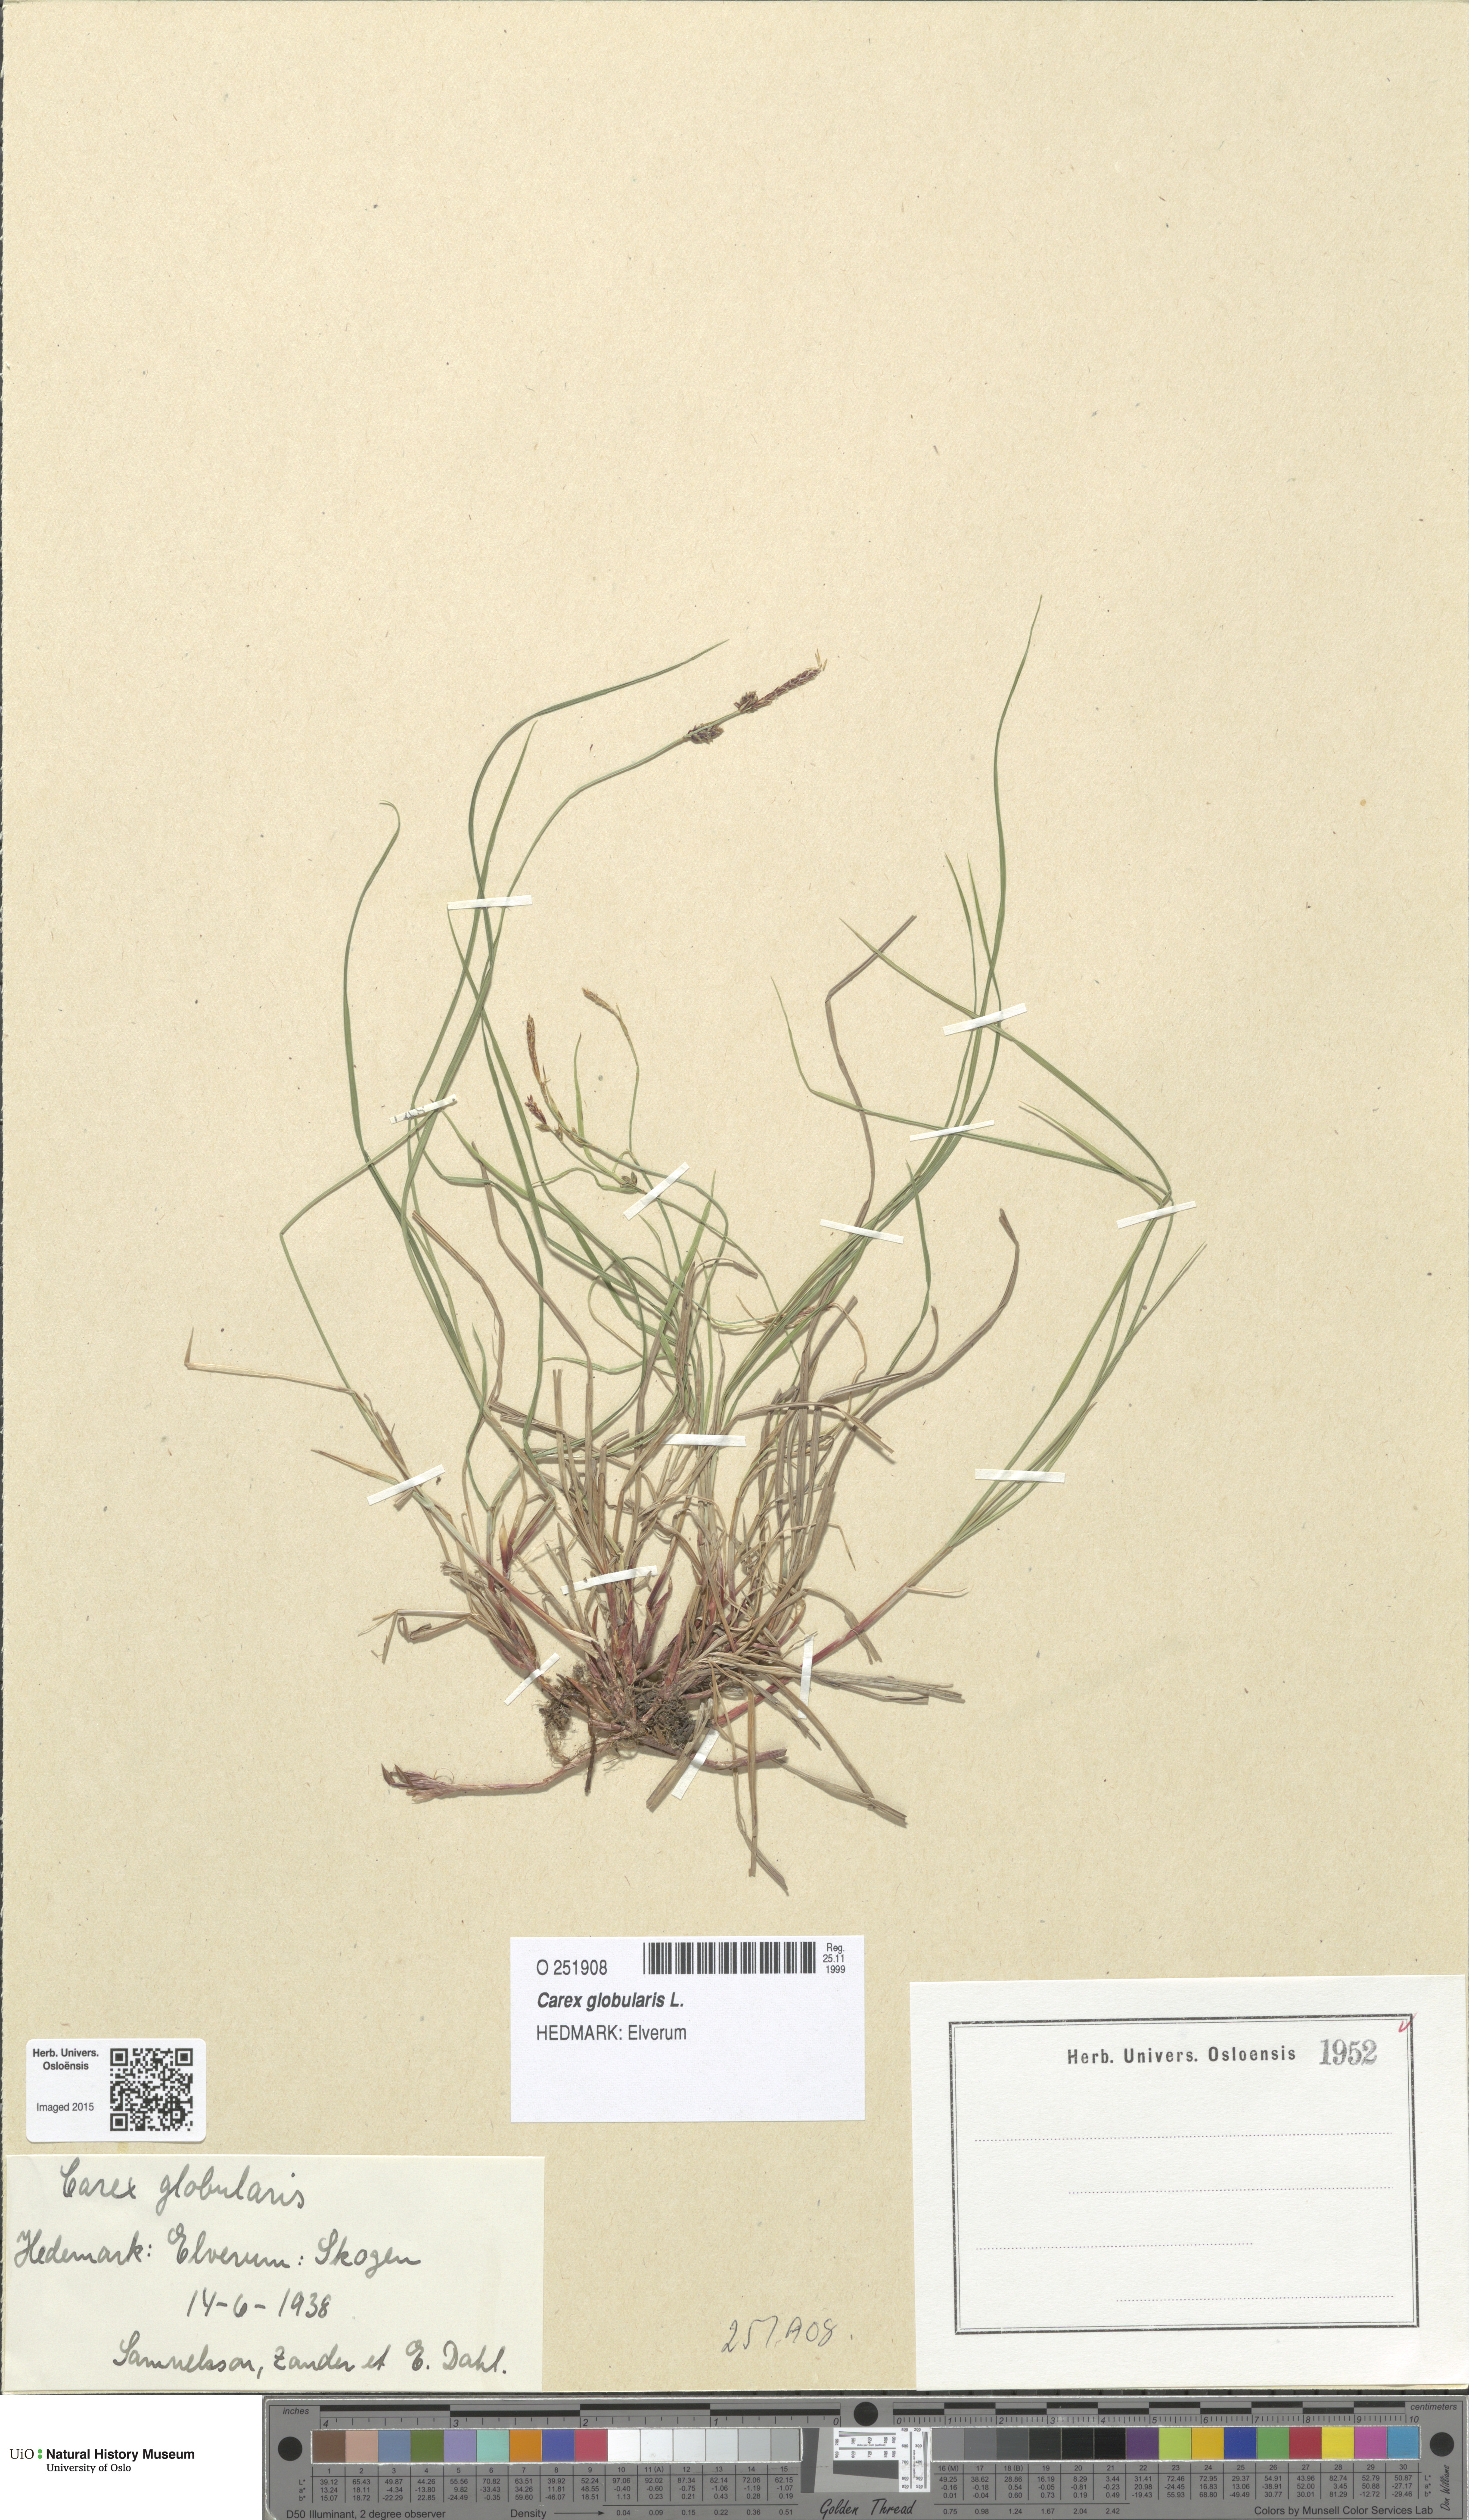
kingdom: Plantae
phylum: Tracheophyta
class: Liliopsida
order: Poales
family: Cyperaceae
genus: Carex
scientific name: Carex globularis
